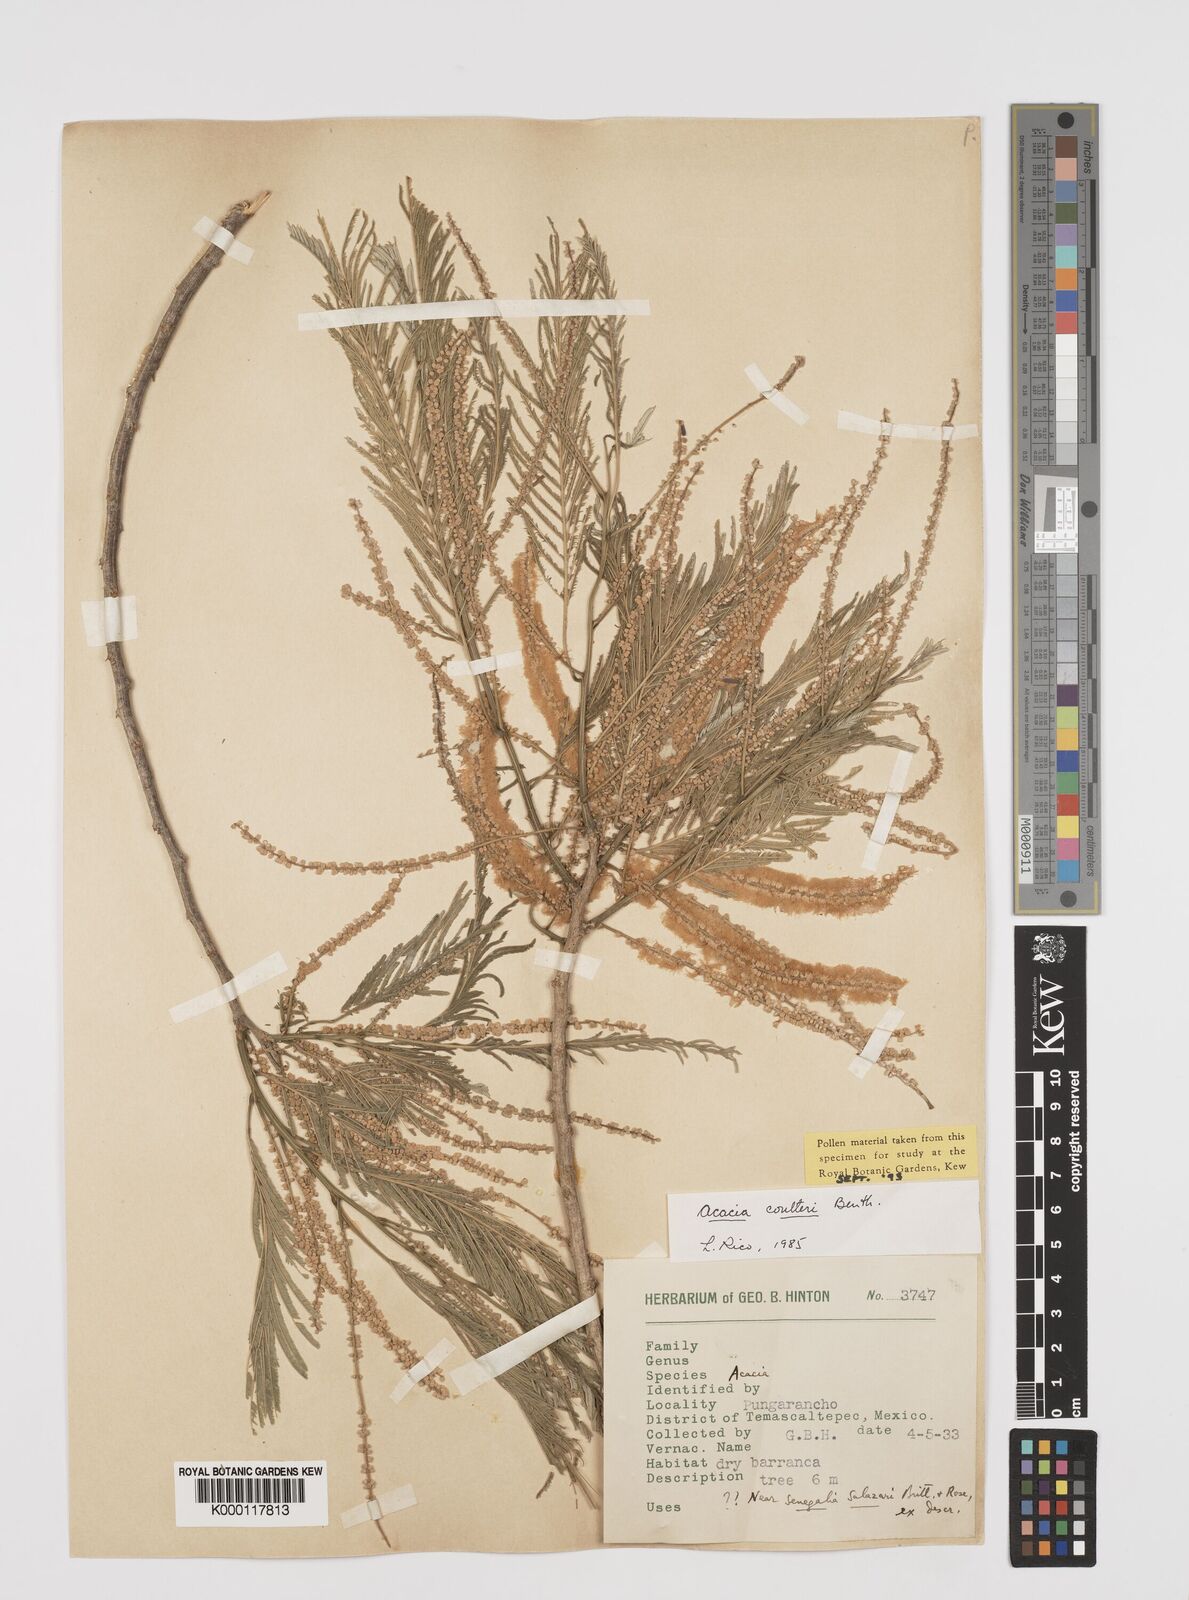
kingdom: Plantae
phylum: Tracheophyta
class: Magnoliopsida
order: Fabales
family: Fabaceae
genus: Mariosousa
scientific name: Mariosousa coulteri
